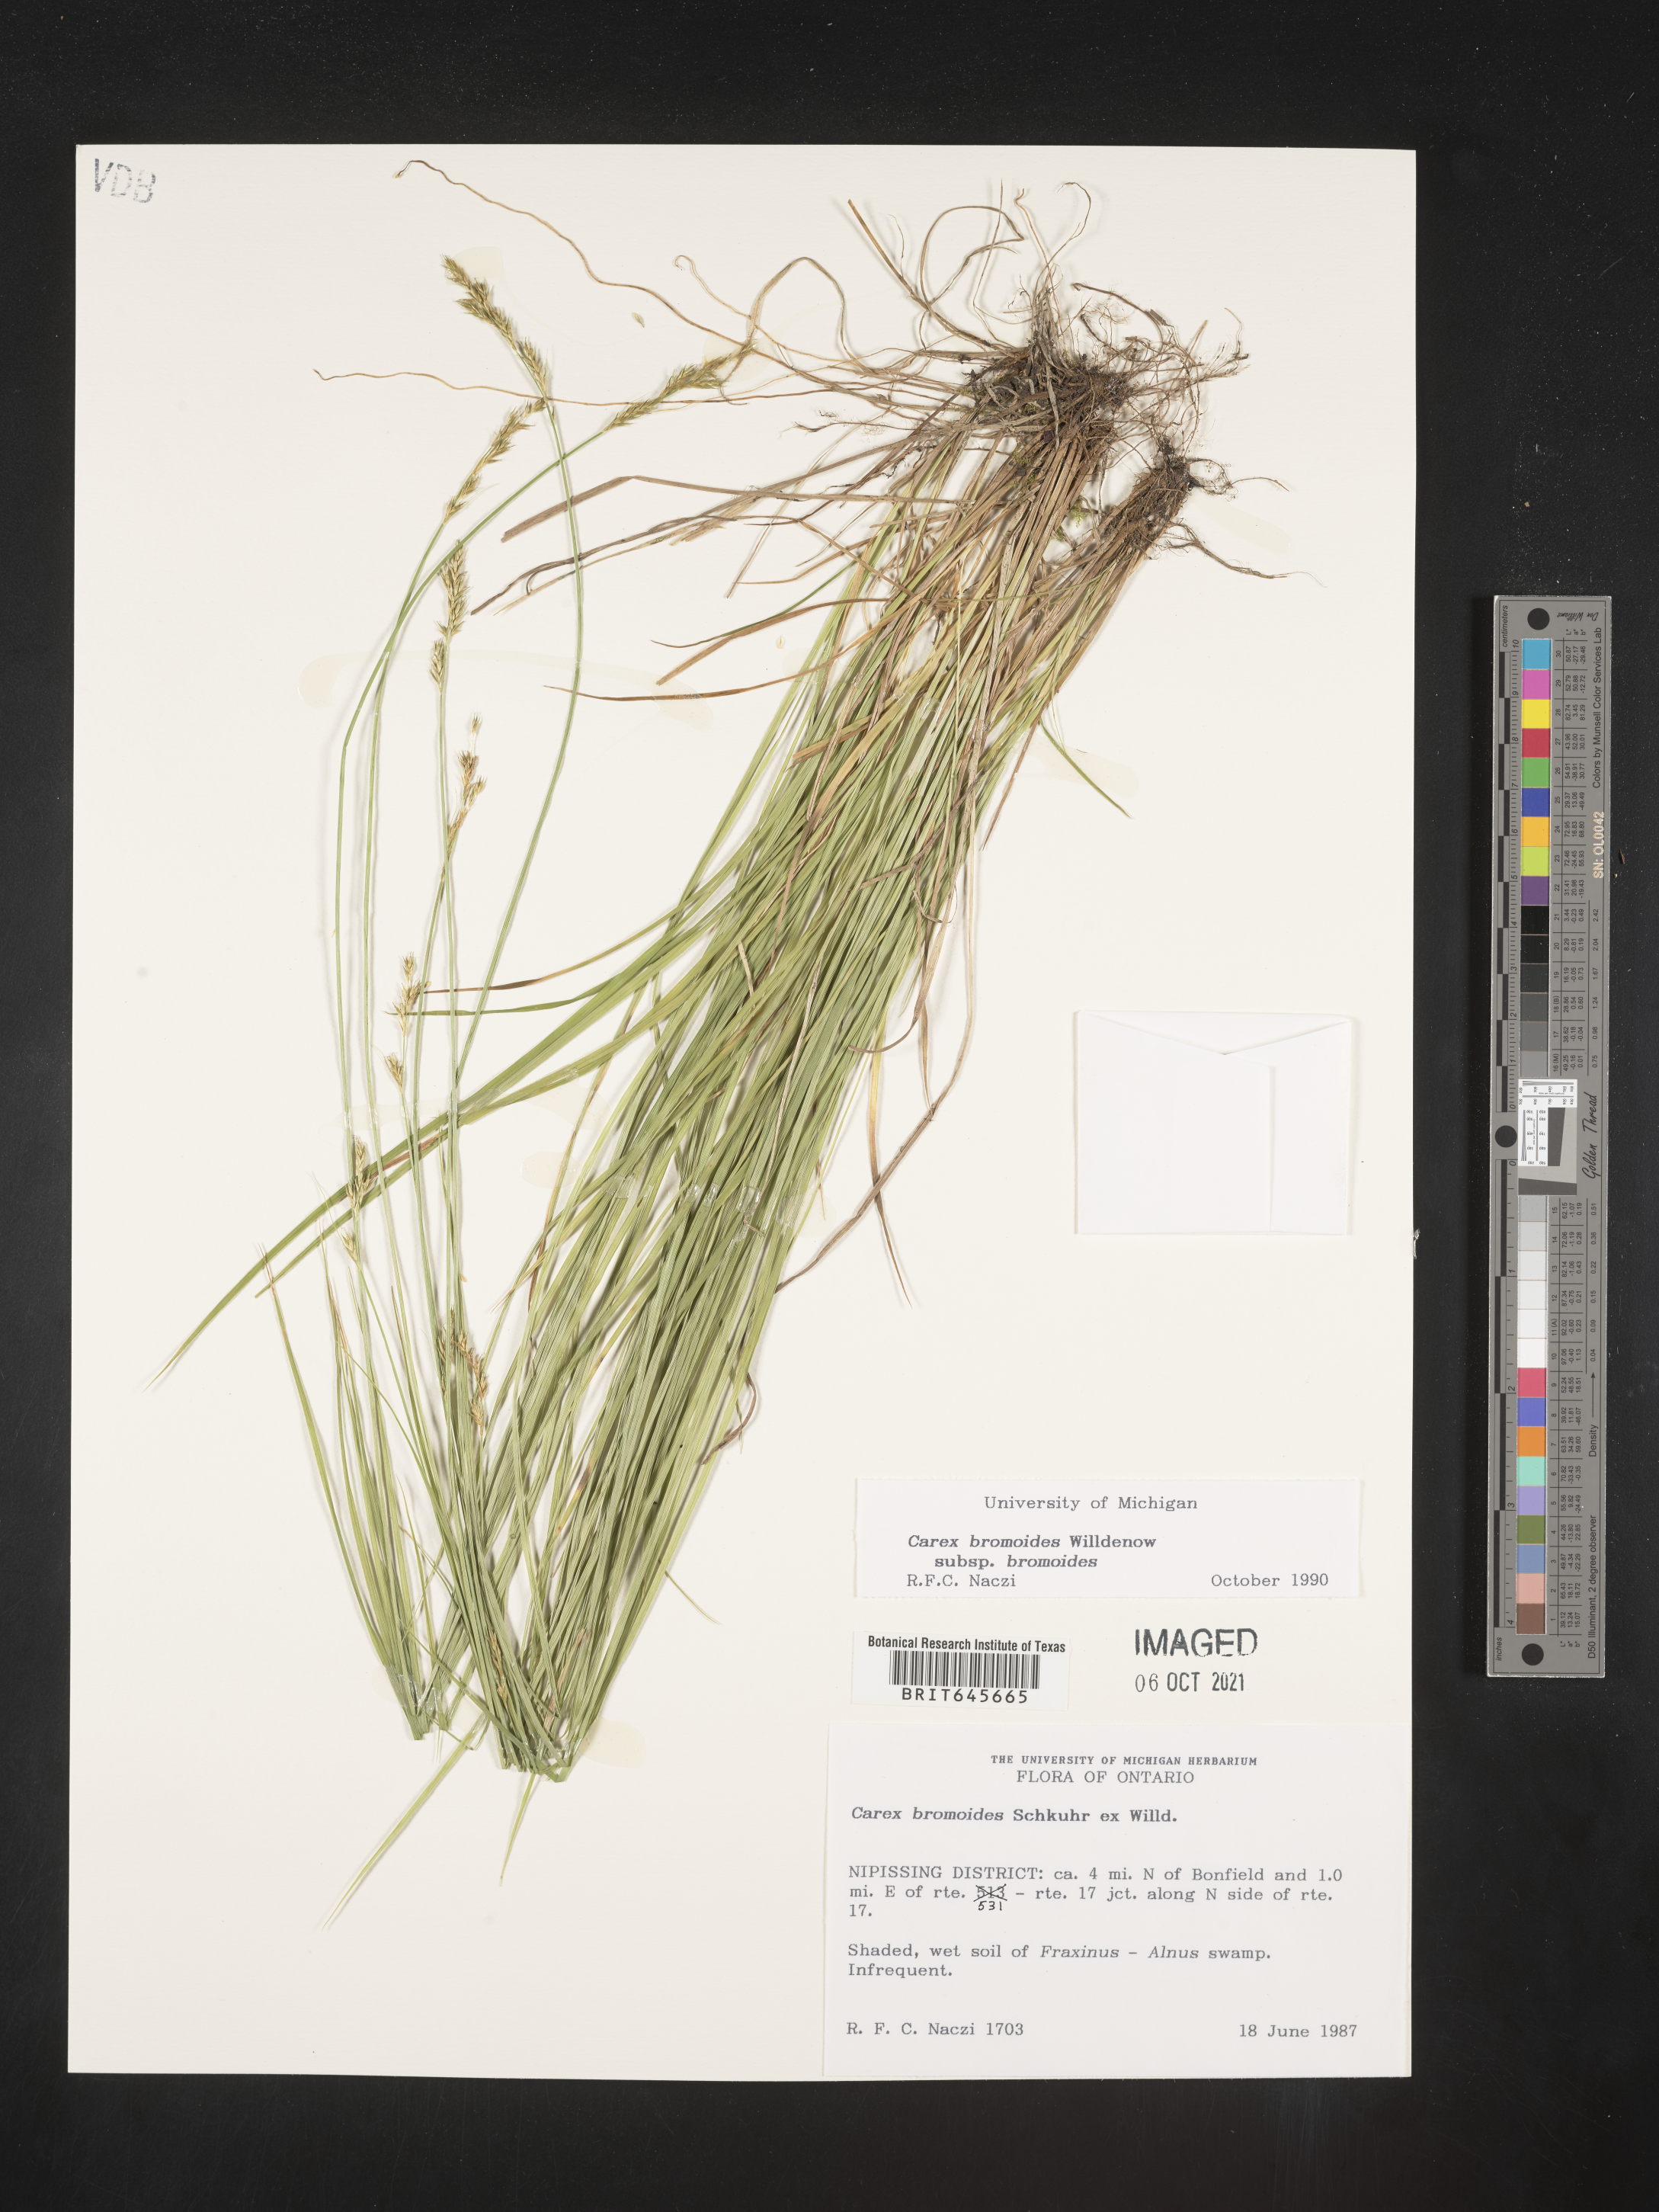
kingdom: Plantae
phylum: Tracheophyta
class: Liliopsida
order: Poales
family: Cyperaceae
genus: Carex
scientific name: Carex bromoides
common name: Brome hummock sedge
